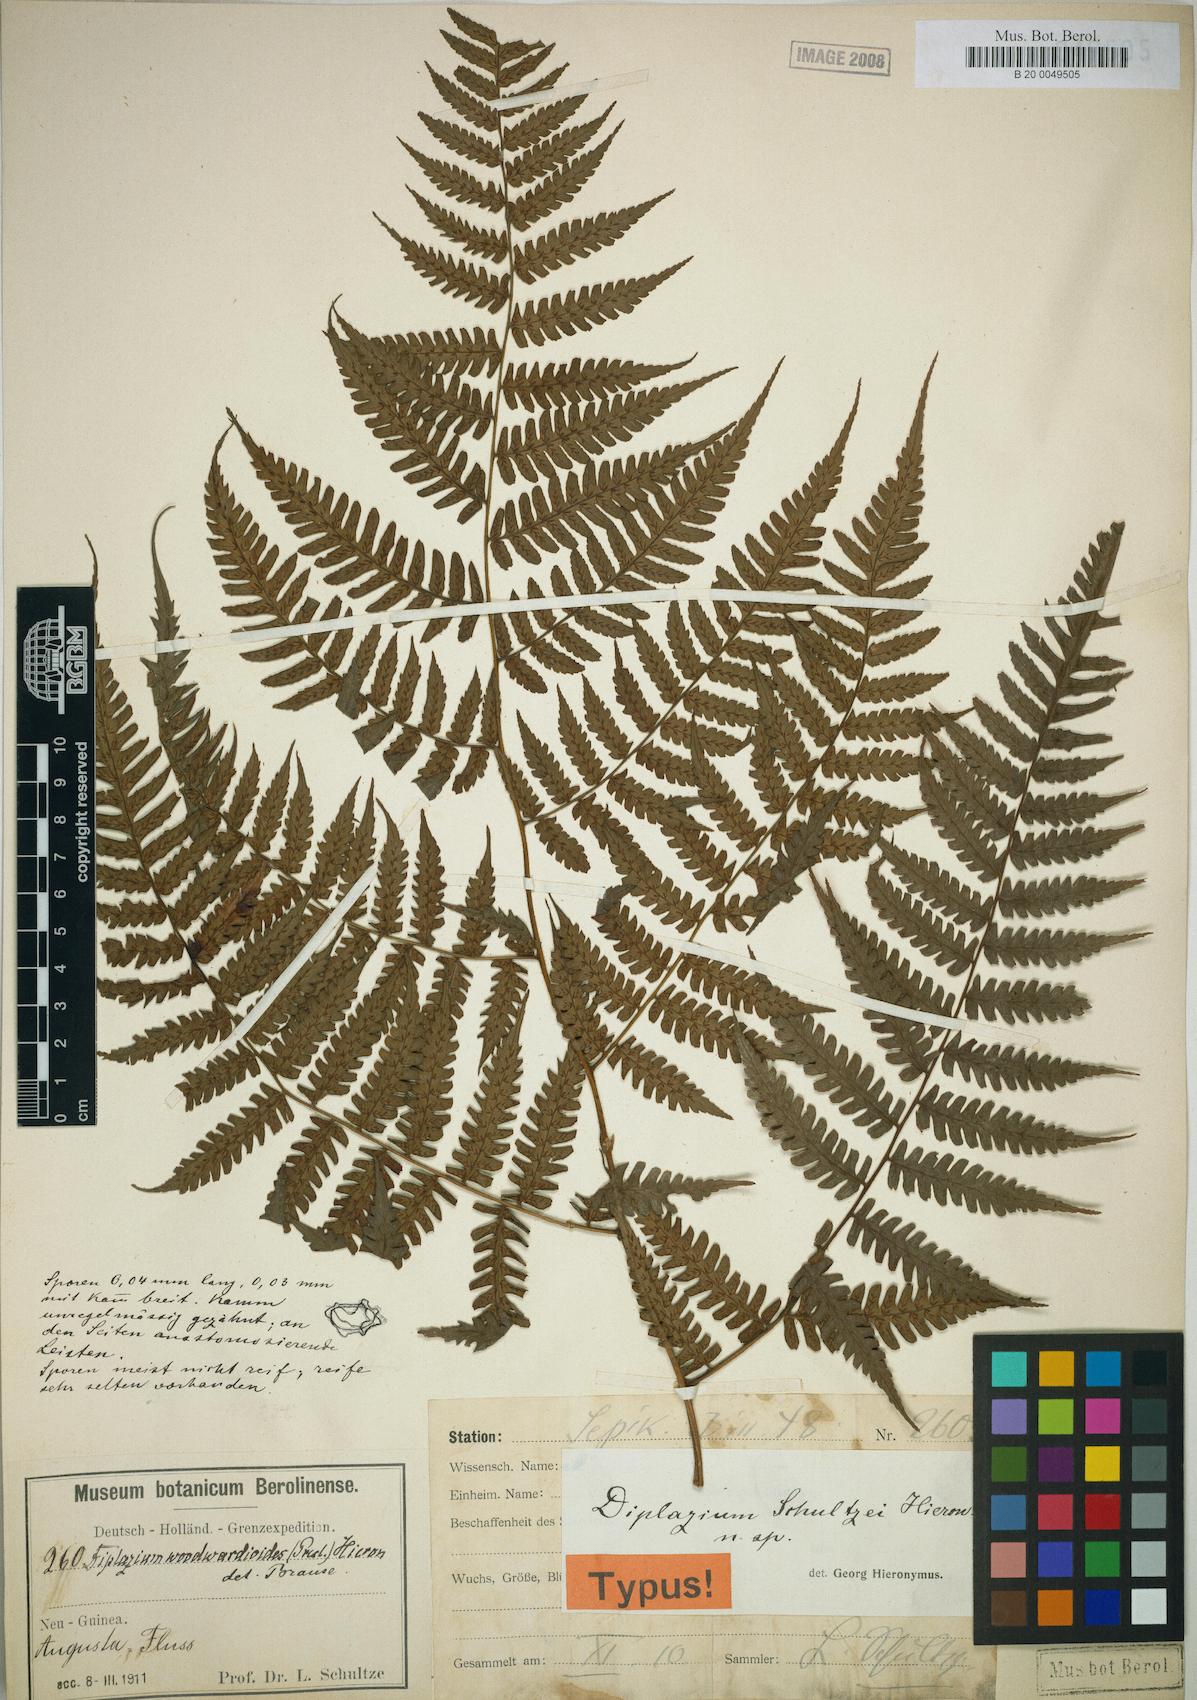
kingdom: Plantae
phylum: Tracheophyta
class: Polypodiopsida
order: Polypodiales
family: Athyriaceae
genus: Diplazium
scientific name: Diplazium schultzei
